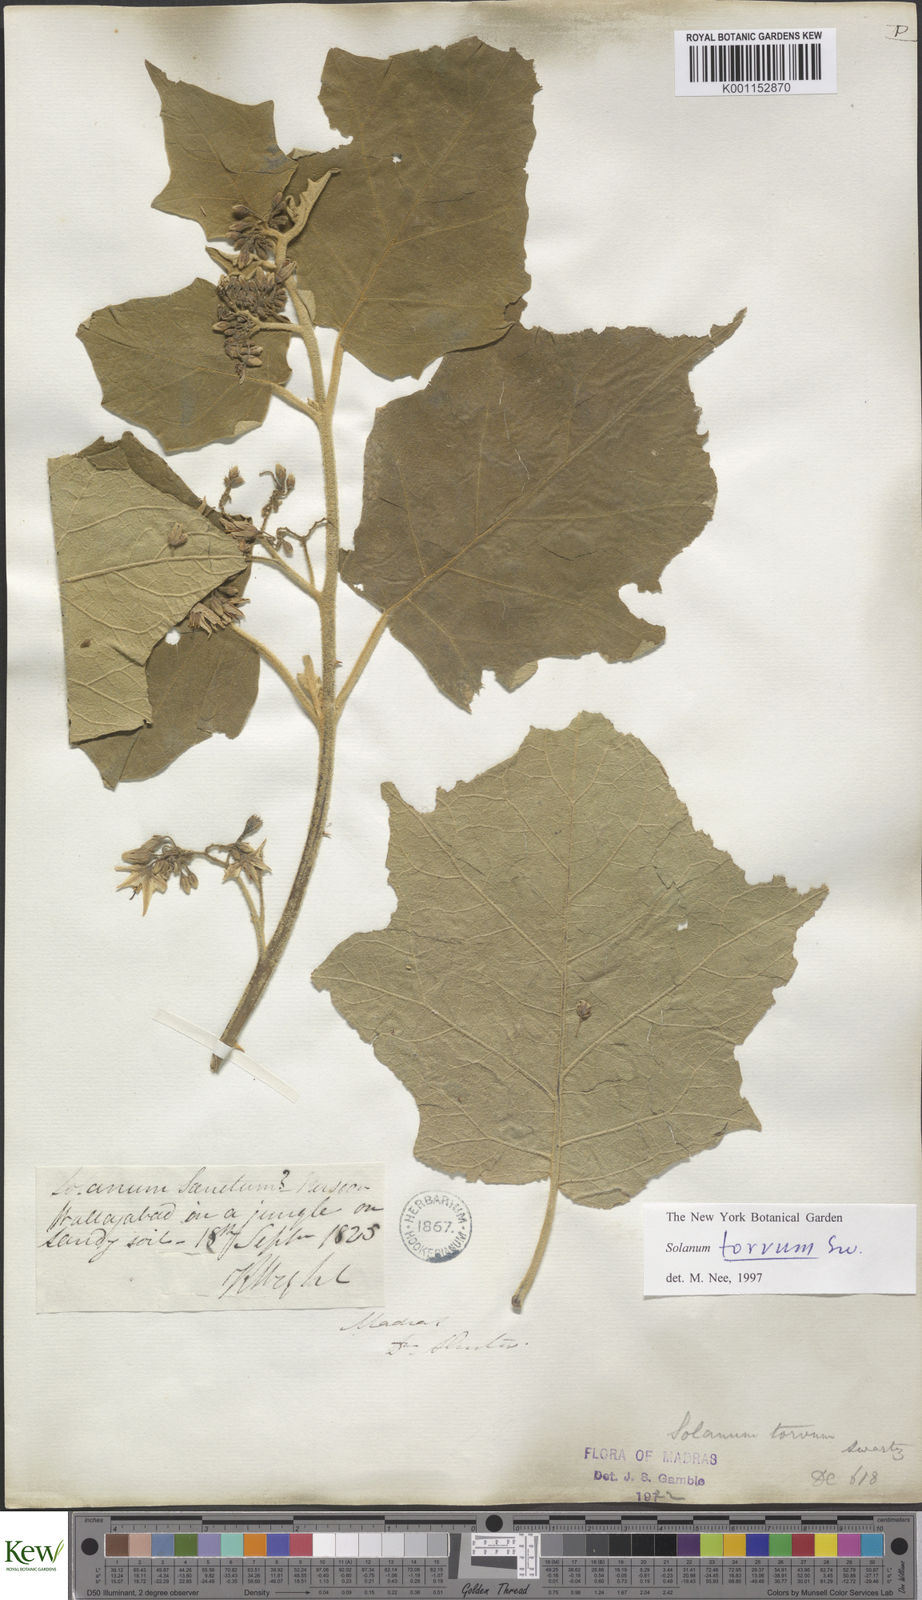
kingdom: Plantae
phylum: Tracheophyta
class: Magnoliopsida
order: Solanales
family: Solanaceae
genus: Solanum
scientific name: Solanum torvum
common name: Turkey berry
